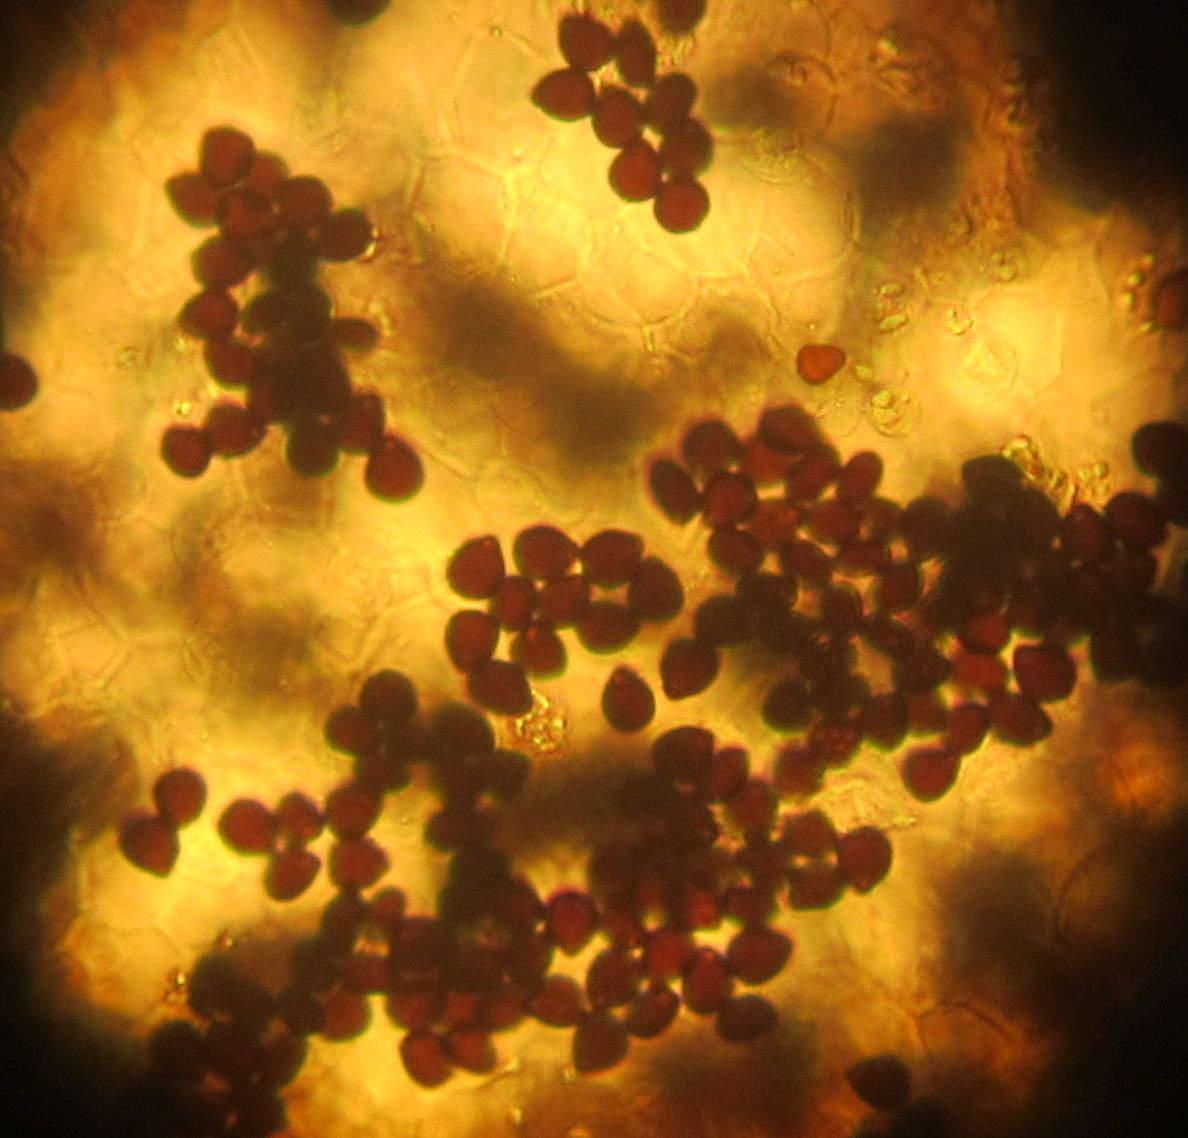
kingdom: Fungi
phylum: Basidiomycota
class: Agaricomycetes
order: Agaricales
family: Psathyrellaceae
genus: Parasola
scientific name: Parasola kuehneri
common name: skygge-hjulhat
